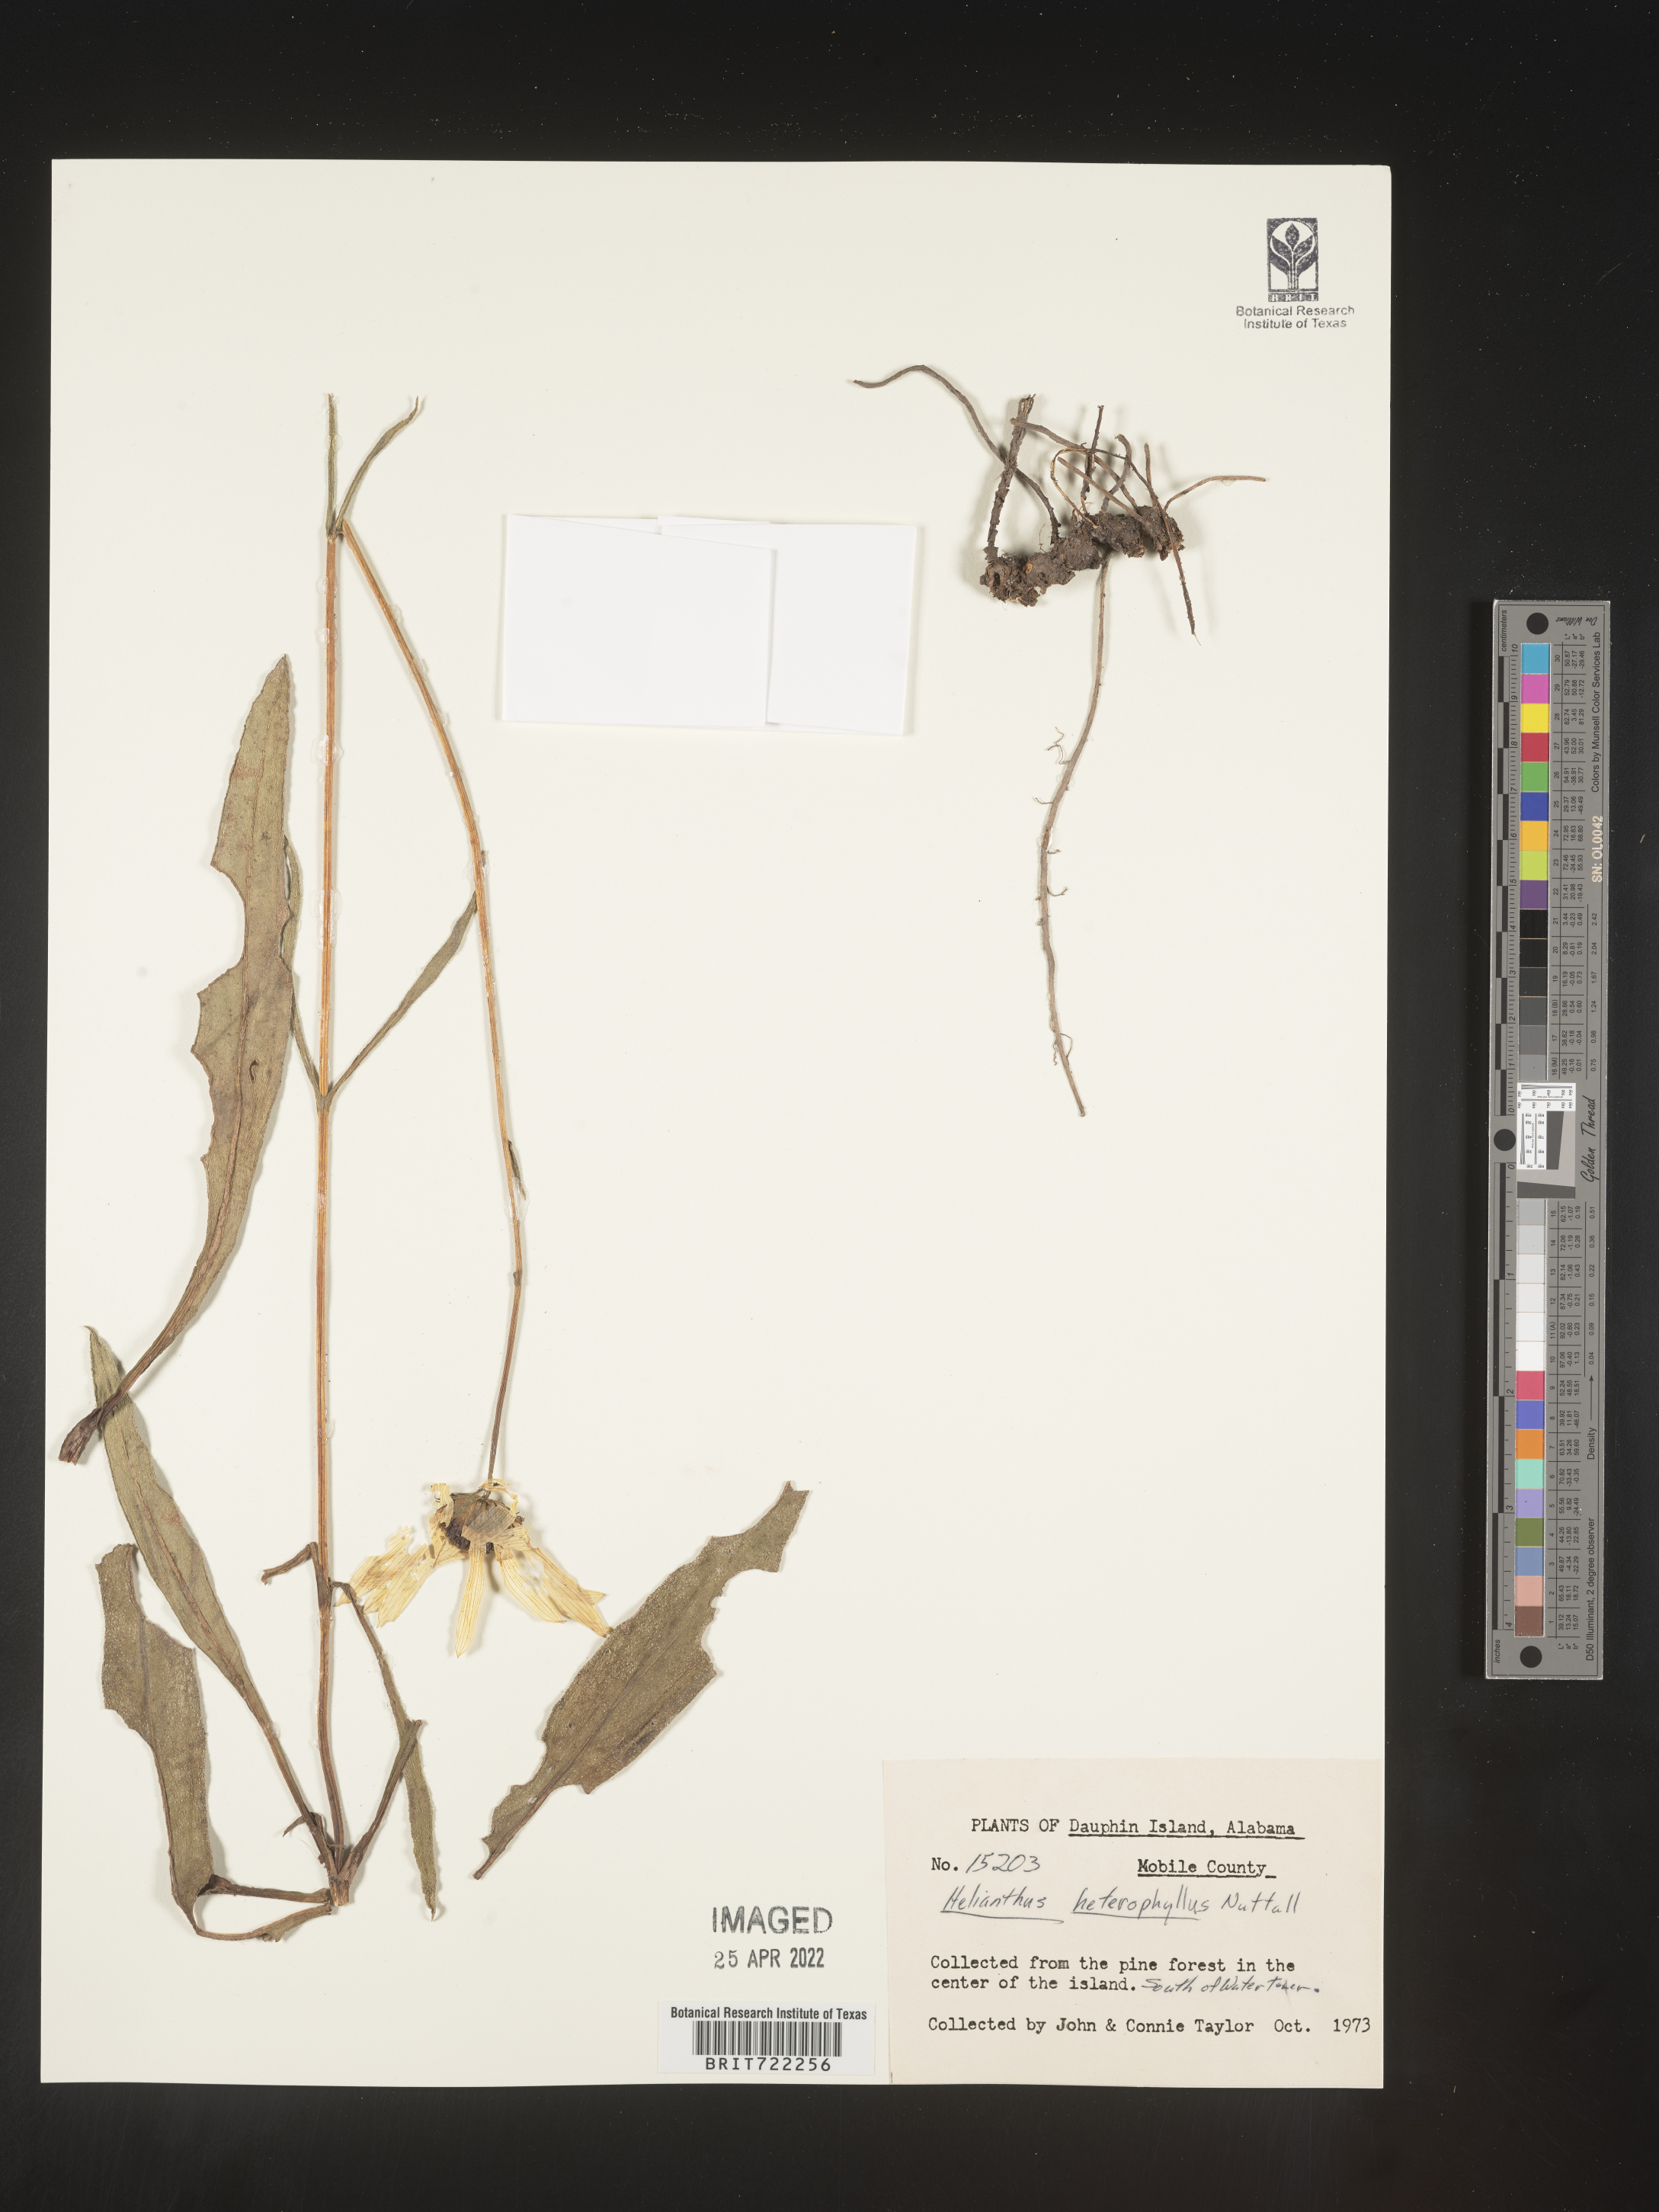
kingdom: Plantae
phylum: Tracheophyta
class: Magnoliopsida
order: Asterales
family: Asteraceae
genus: Helianthus
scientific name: Helianthus heterophyllus
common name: Wetland sunflower
